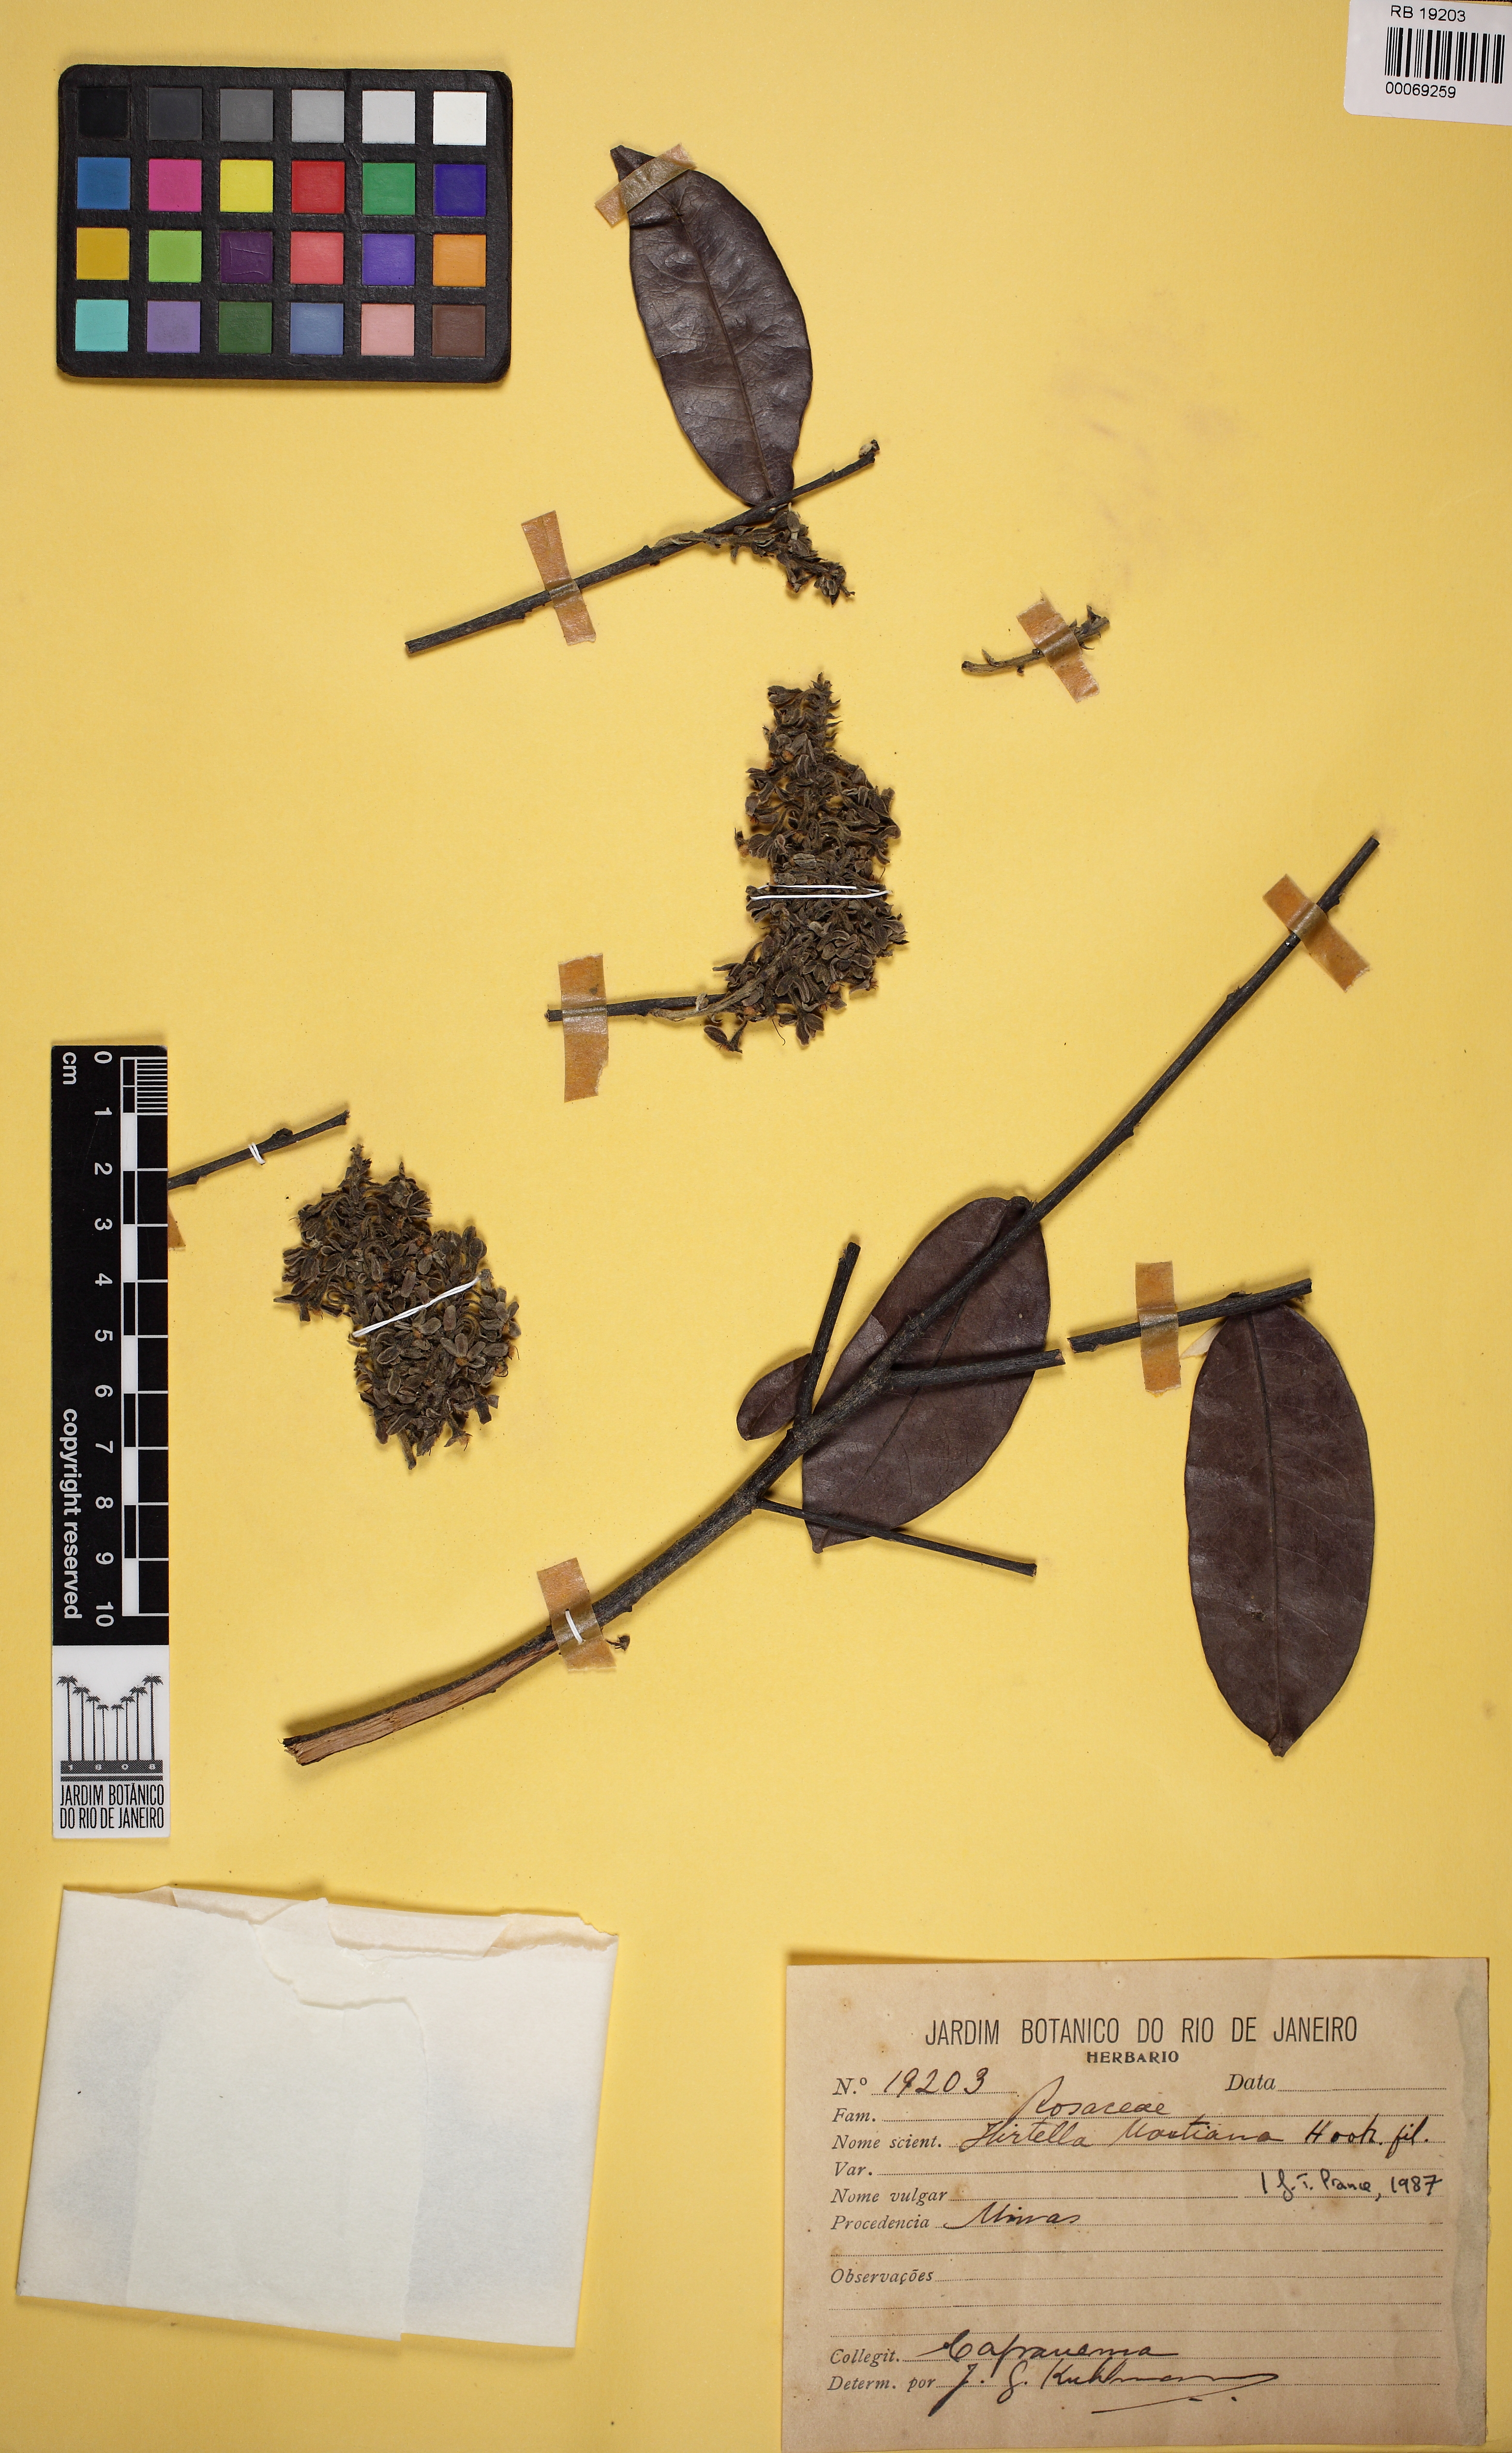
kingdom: Plantae
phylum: Tracheophyta
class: Magnoliopsida
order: Malpighiales
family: Chrysobalanaceae
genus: Hirtella
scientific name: Hirtella martiana
